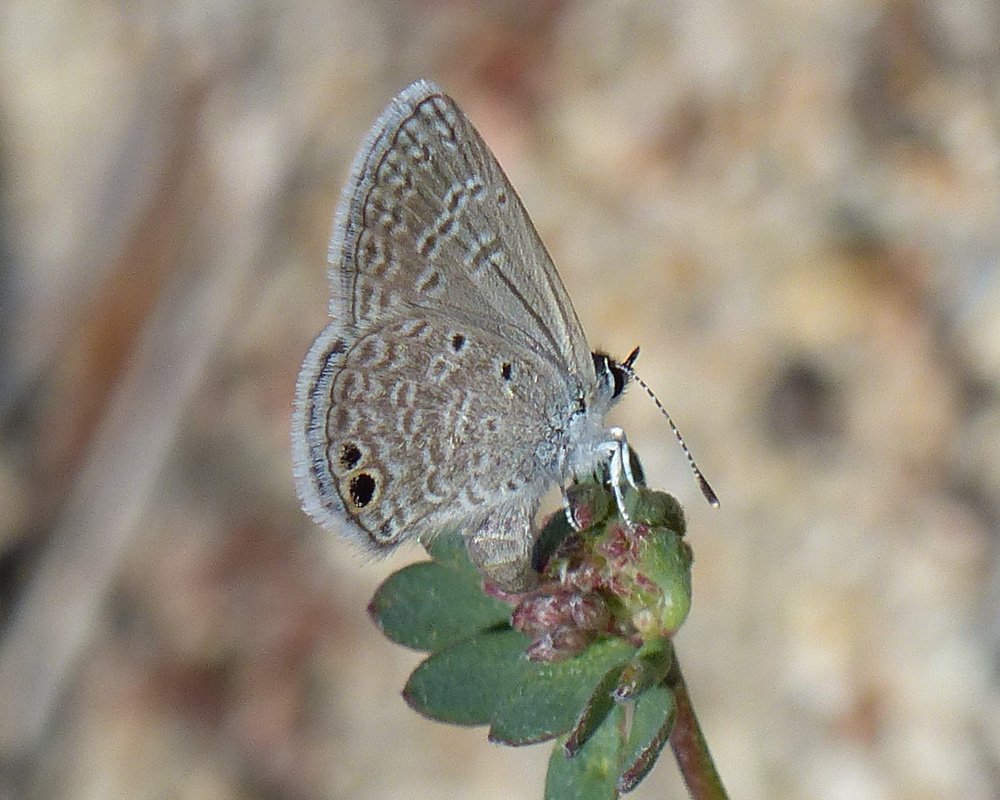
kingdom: Animalia
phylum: Arthropoda
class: Insecta
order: Lepidoptera
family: Lycaenidae
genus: Hemiargus
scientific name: Hemiargus ceraunus
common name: Ceraunus Blue
